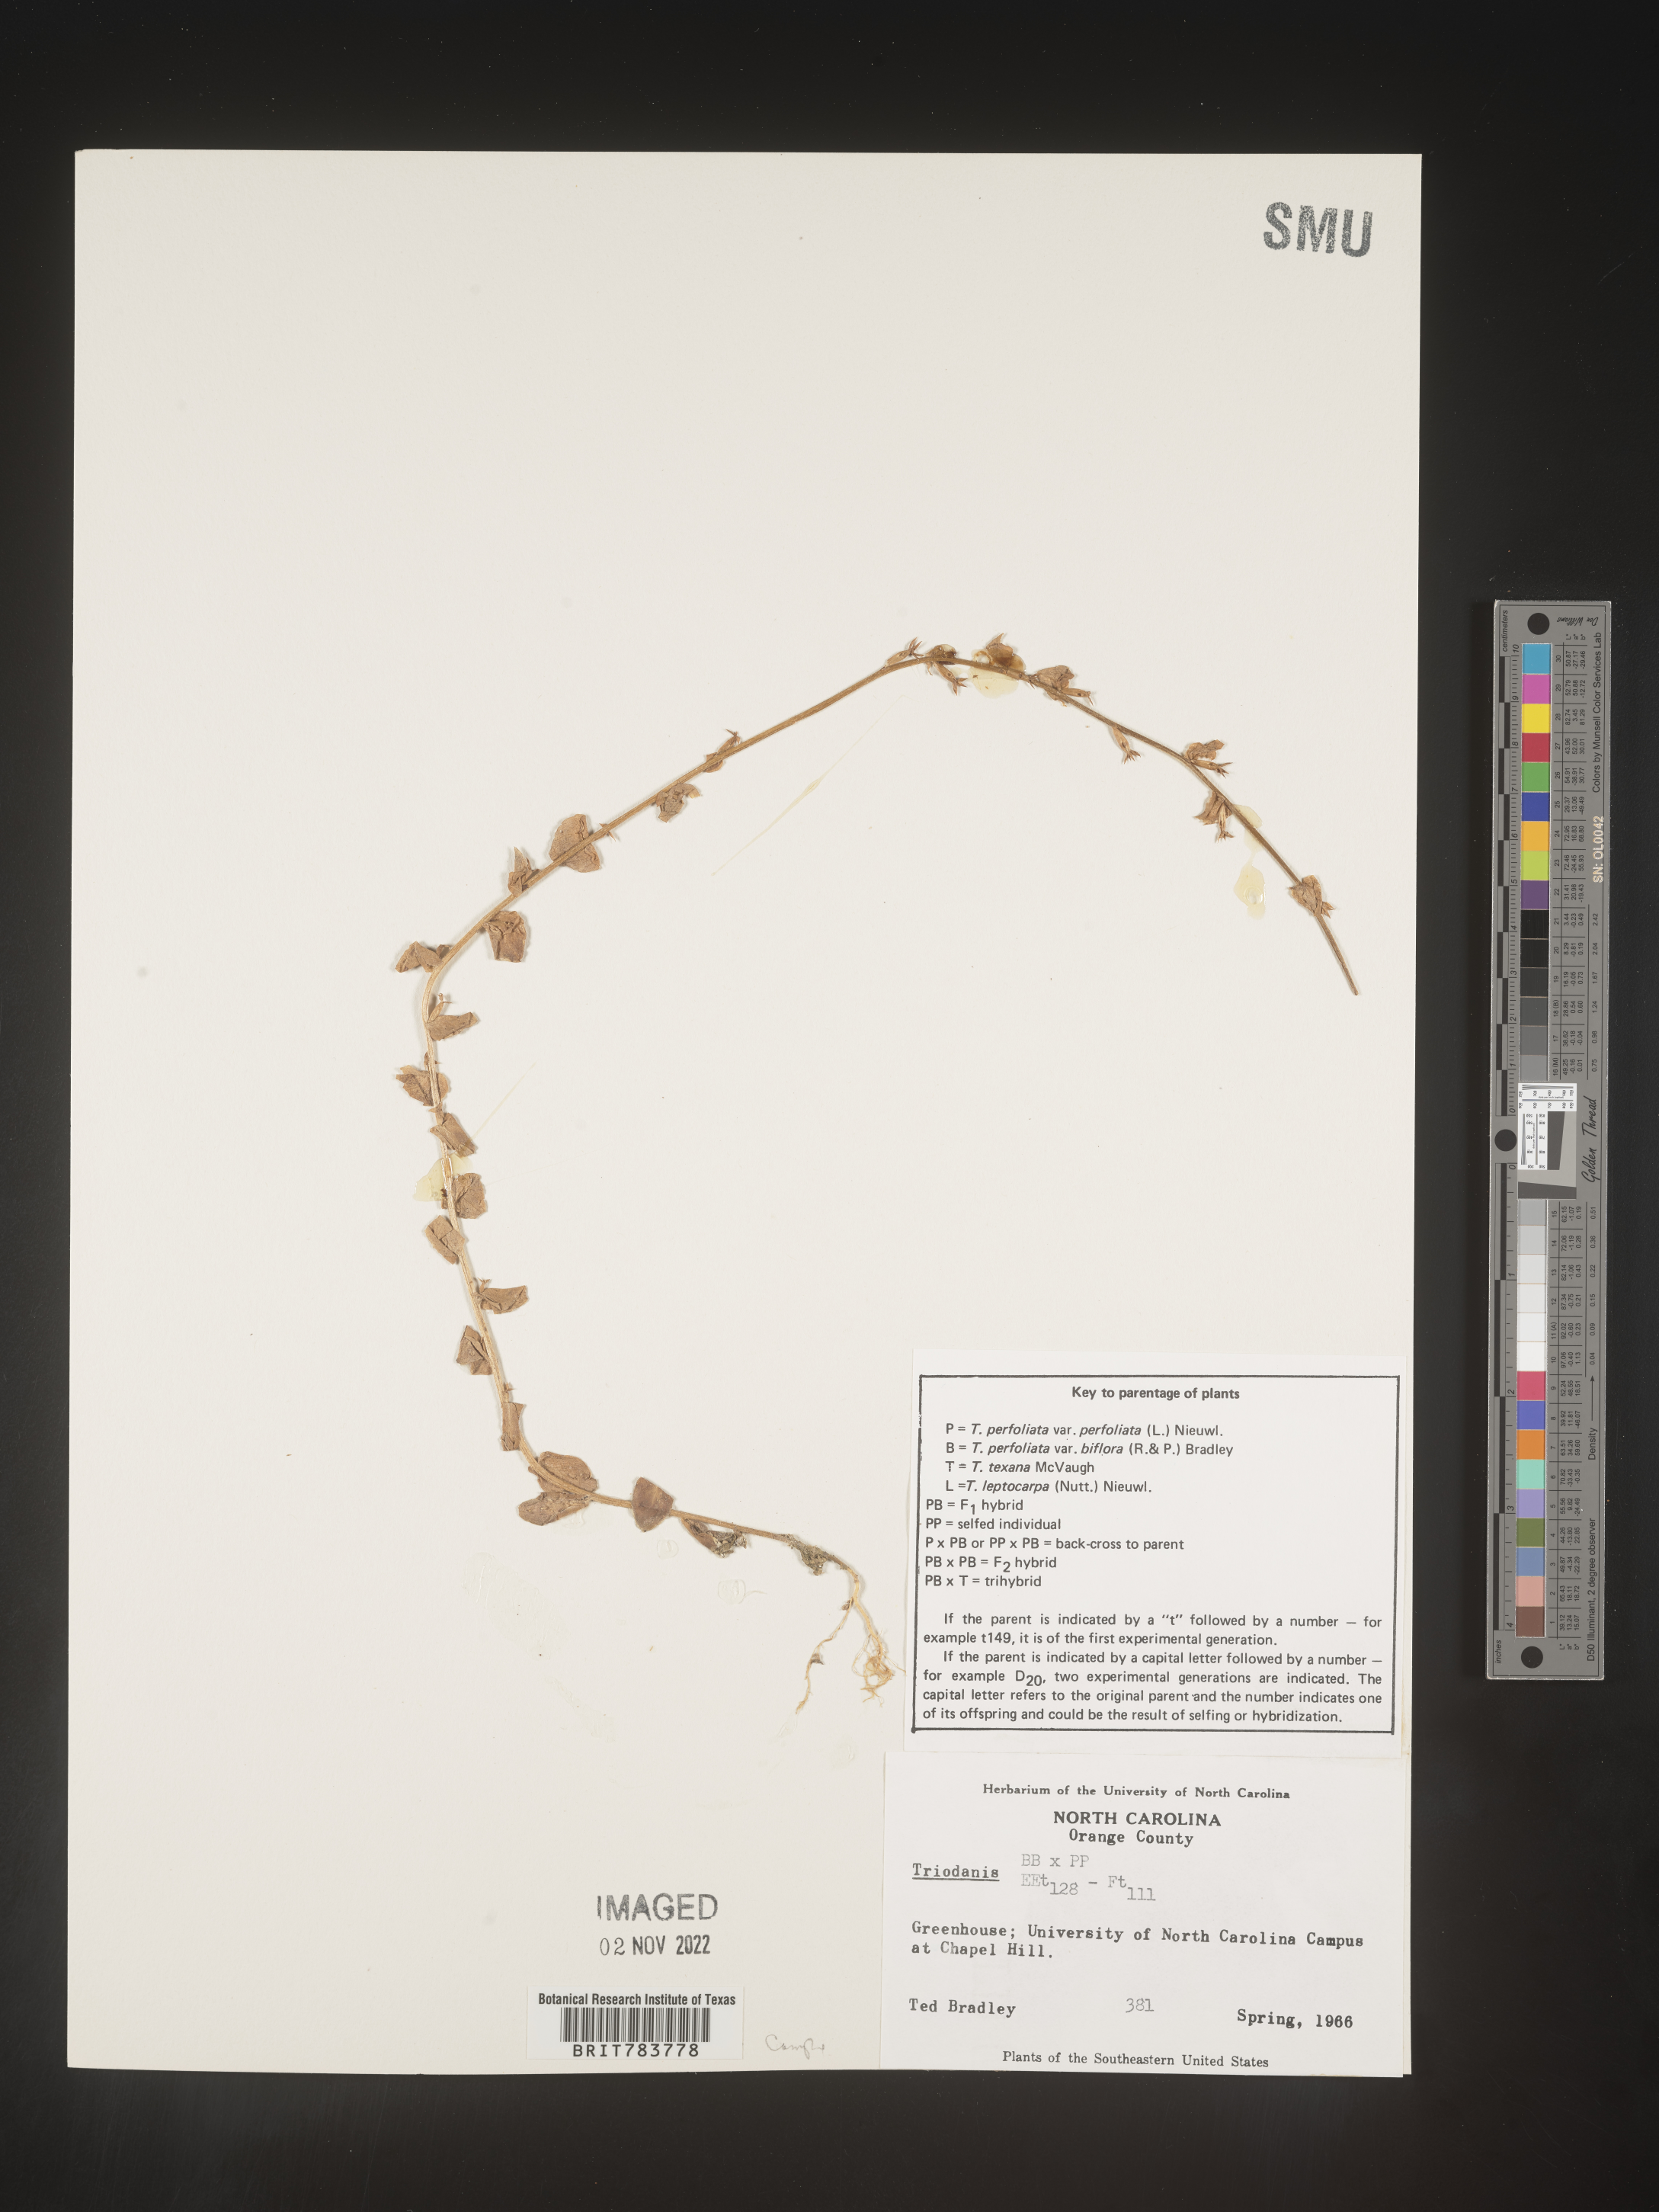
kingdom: Plantae
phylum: Tracheophyta
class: Magnoliopsida
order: Asterales
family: Campanulaceae
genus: Triodanis
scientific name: Triodanis
